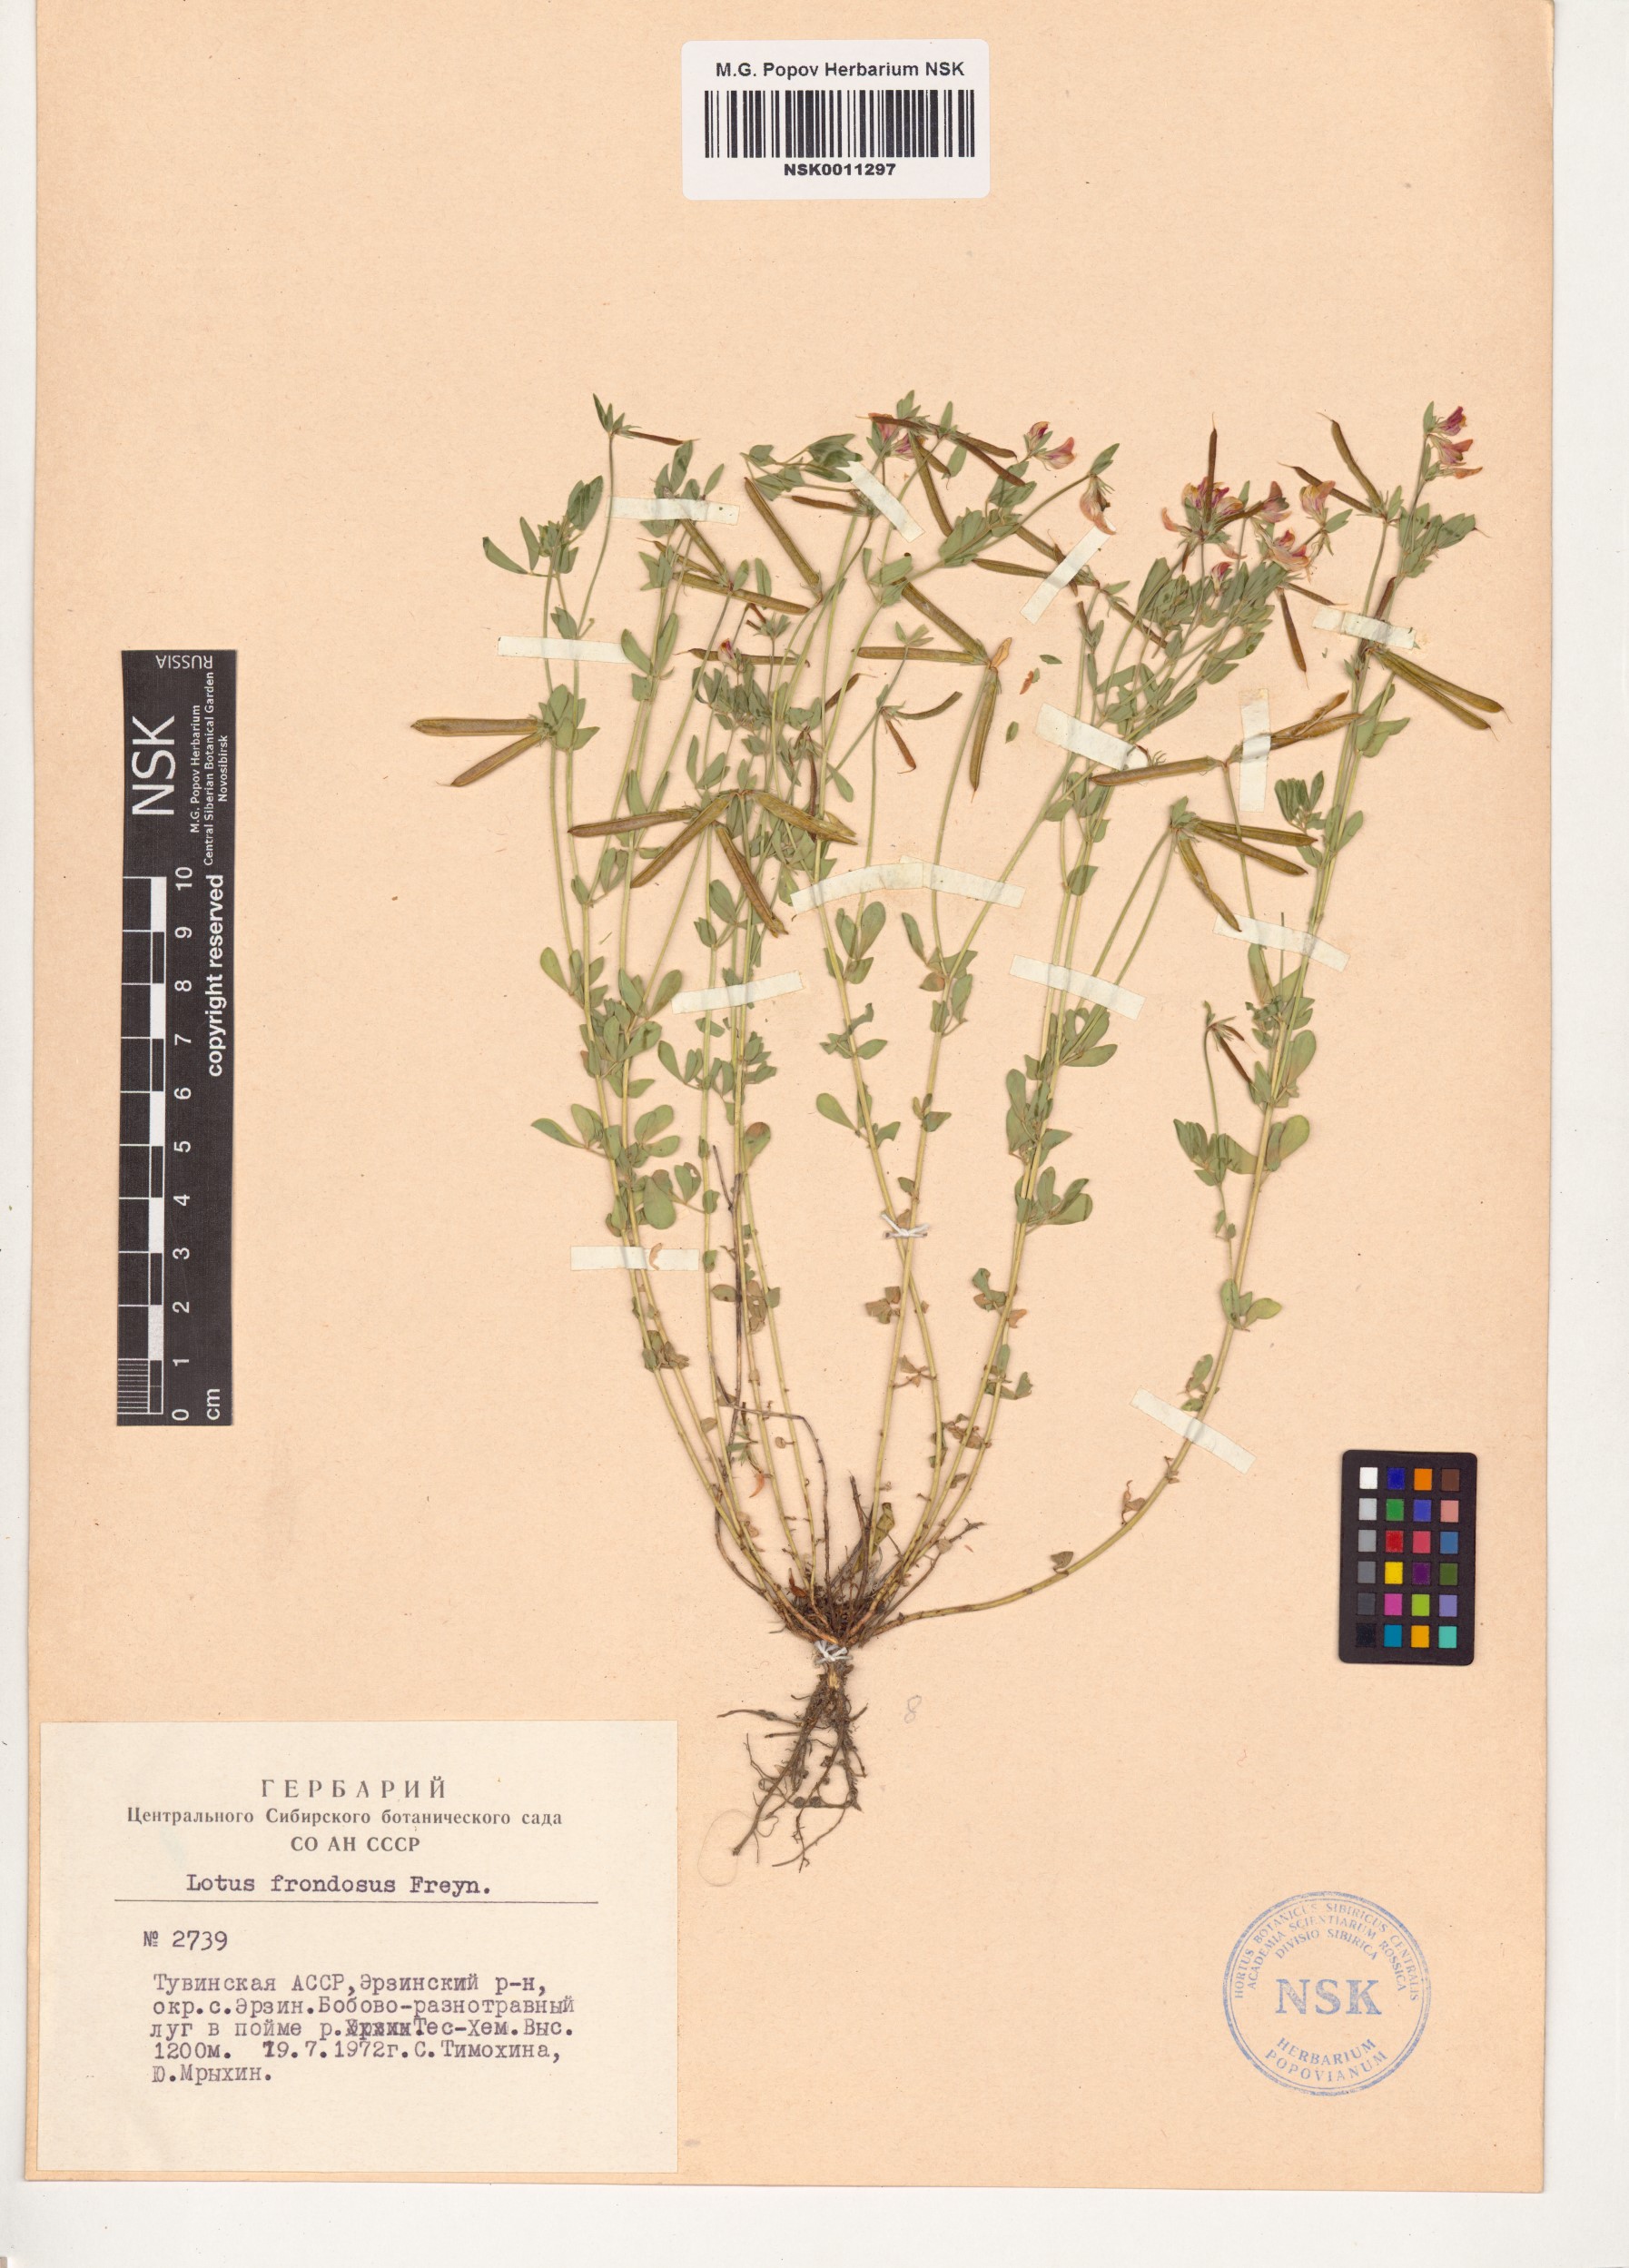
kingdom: Plantae
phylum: Tracheophyta
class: Magnoliopsida
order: Fabales
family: Fabaceae
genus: Lotus
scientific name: Lotus frondosus
